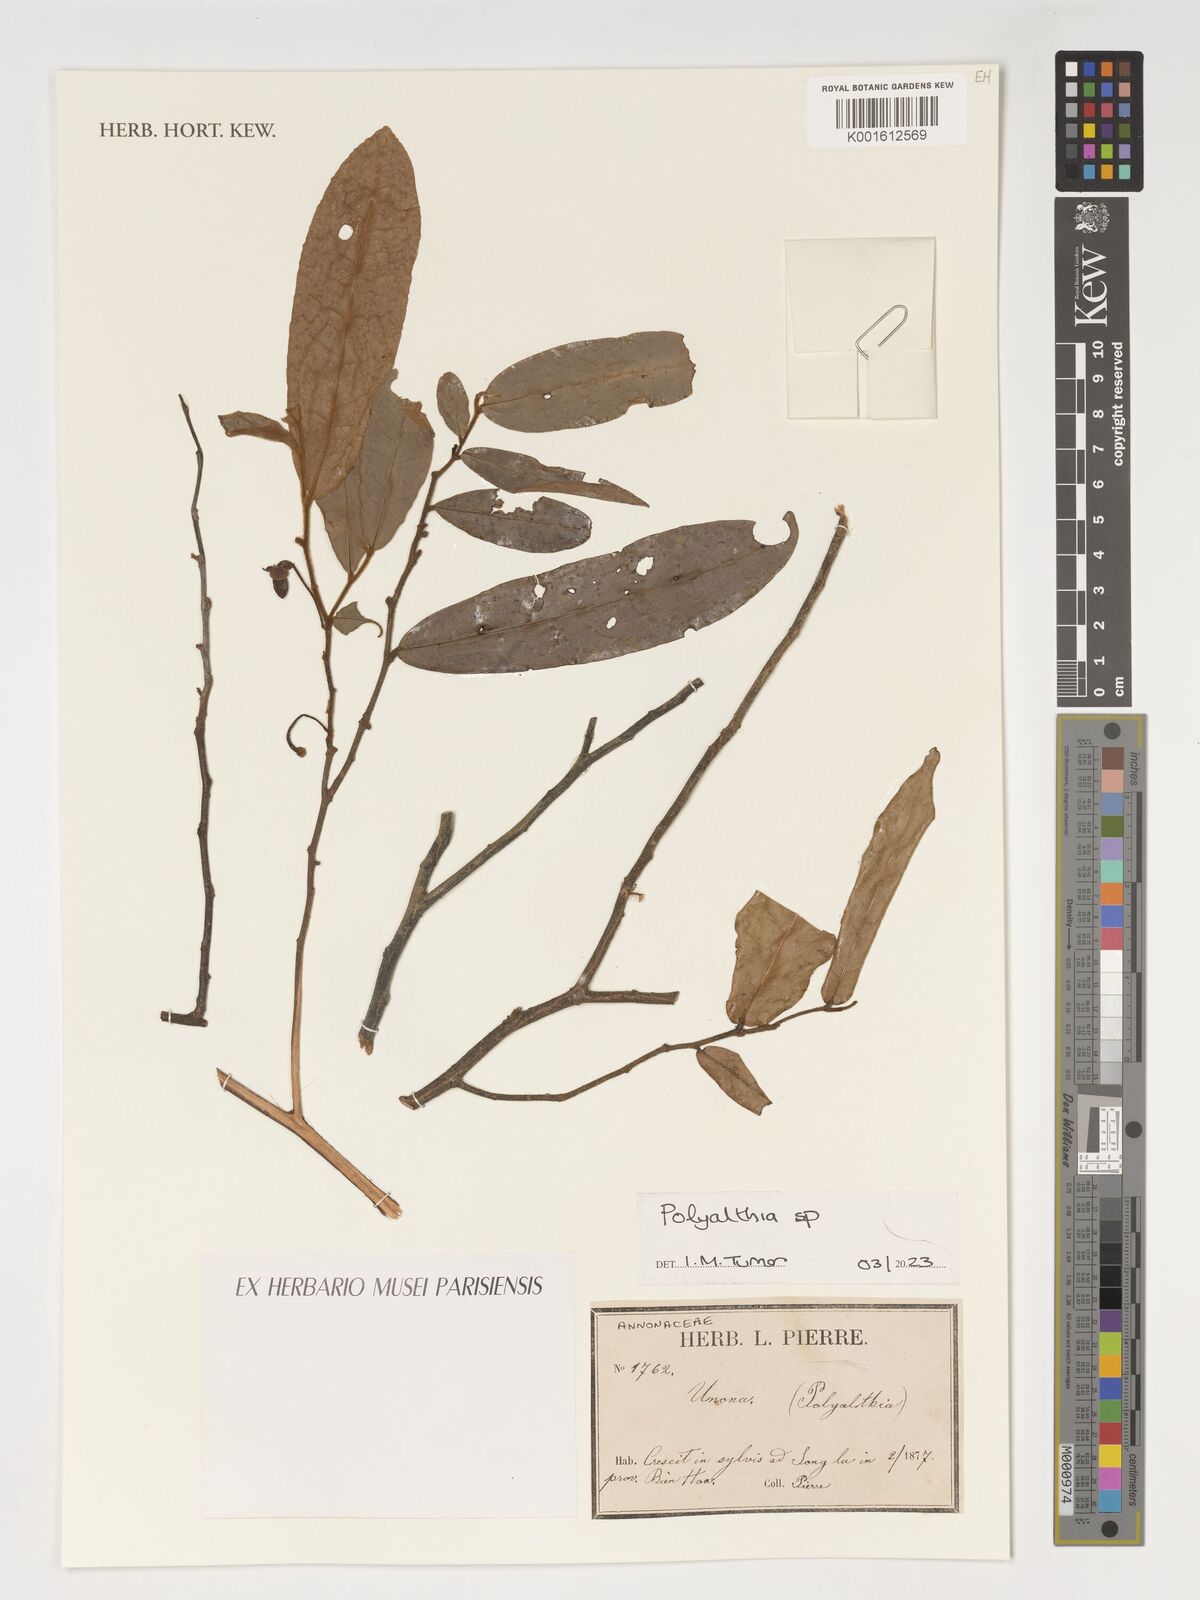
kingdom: Plantae
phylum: Tracheophyta
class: Magnoliopsida
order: Magnoliales
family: Annonaceae
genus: Polyalthia
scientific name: Polyalthia
